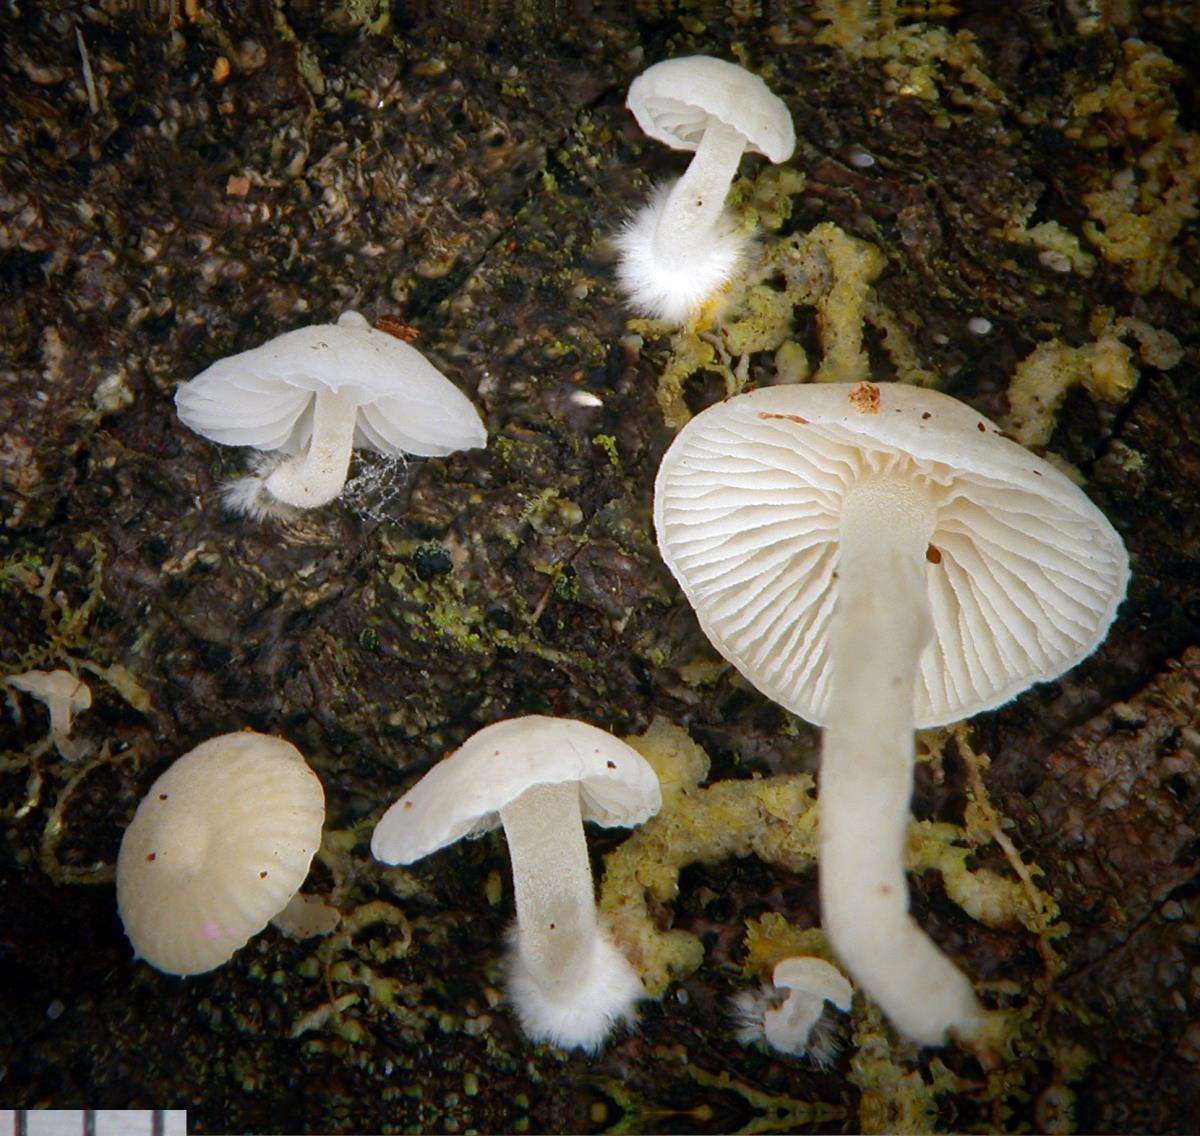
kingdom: Fungi
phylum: Basidiomycota
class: Agaricomycetes
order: Agaricales
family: Mycenaceae
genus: Hemimycena
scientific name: Hemimycena tortuosa
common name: Dewdrop bonnet
